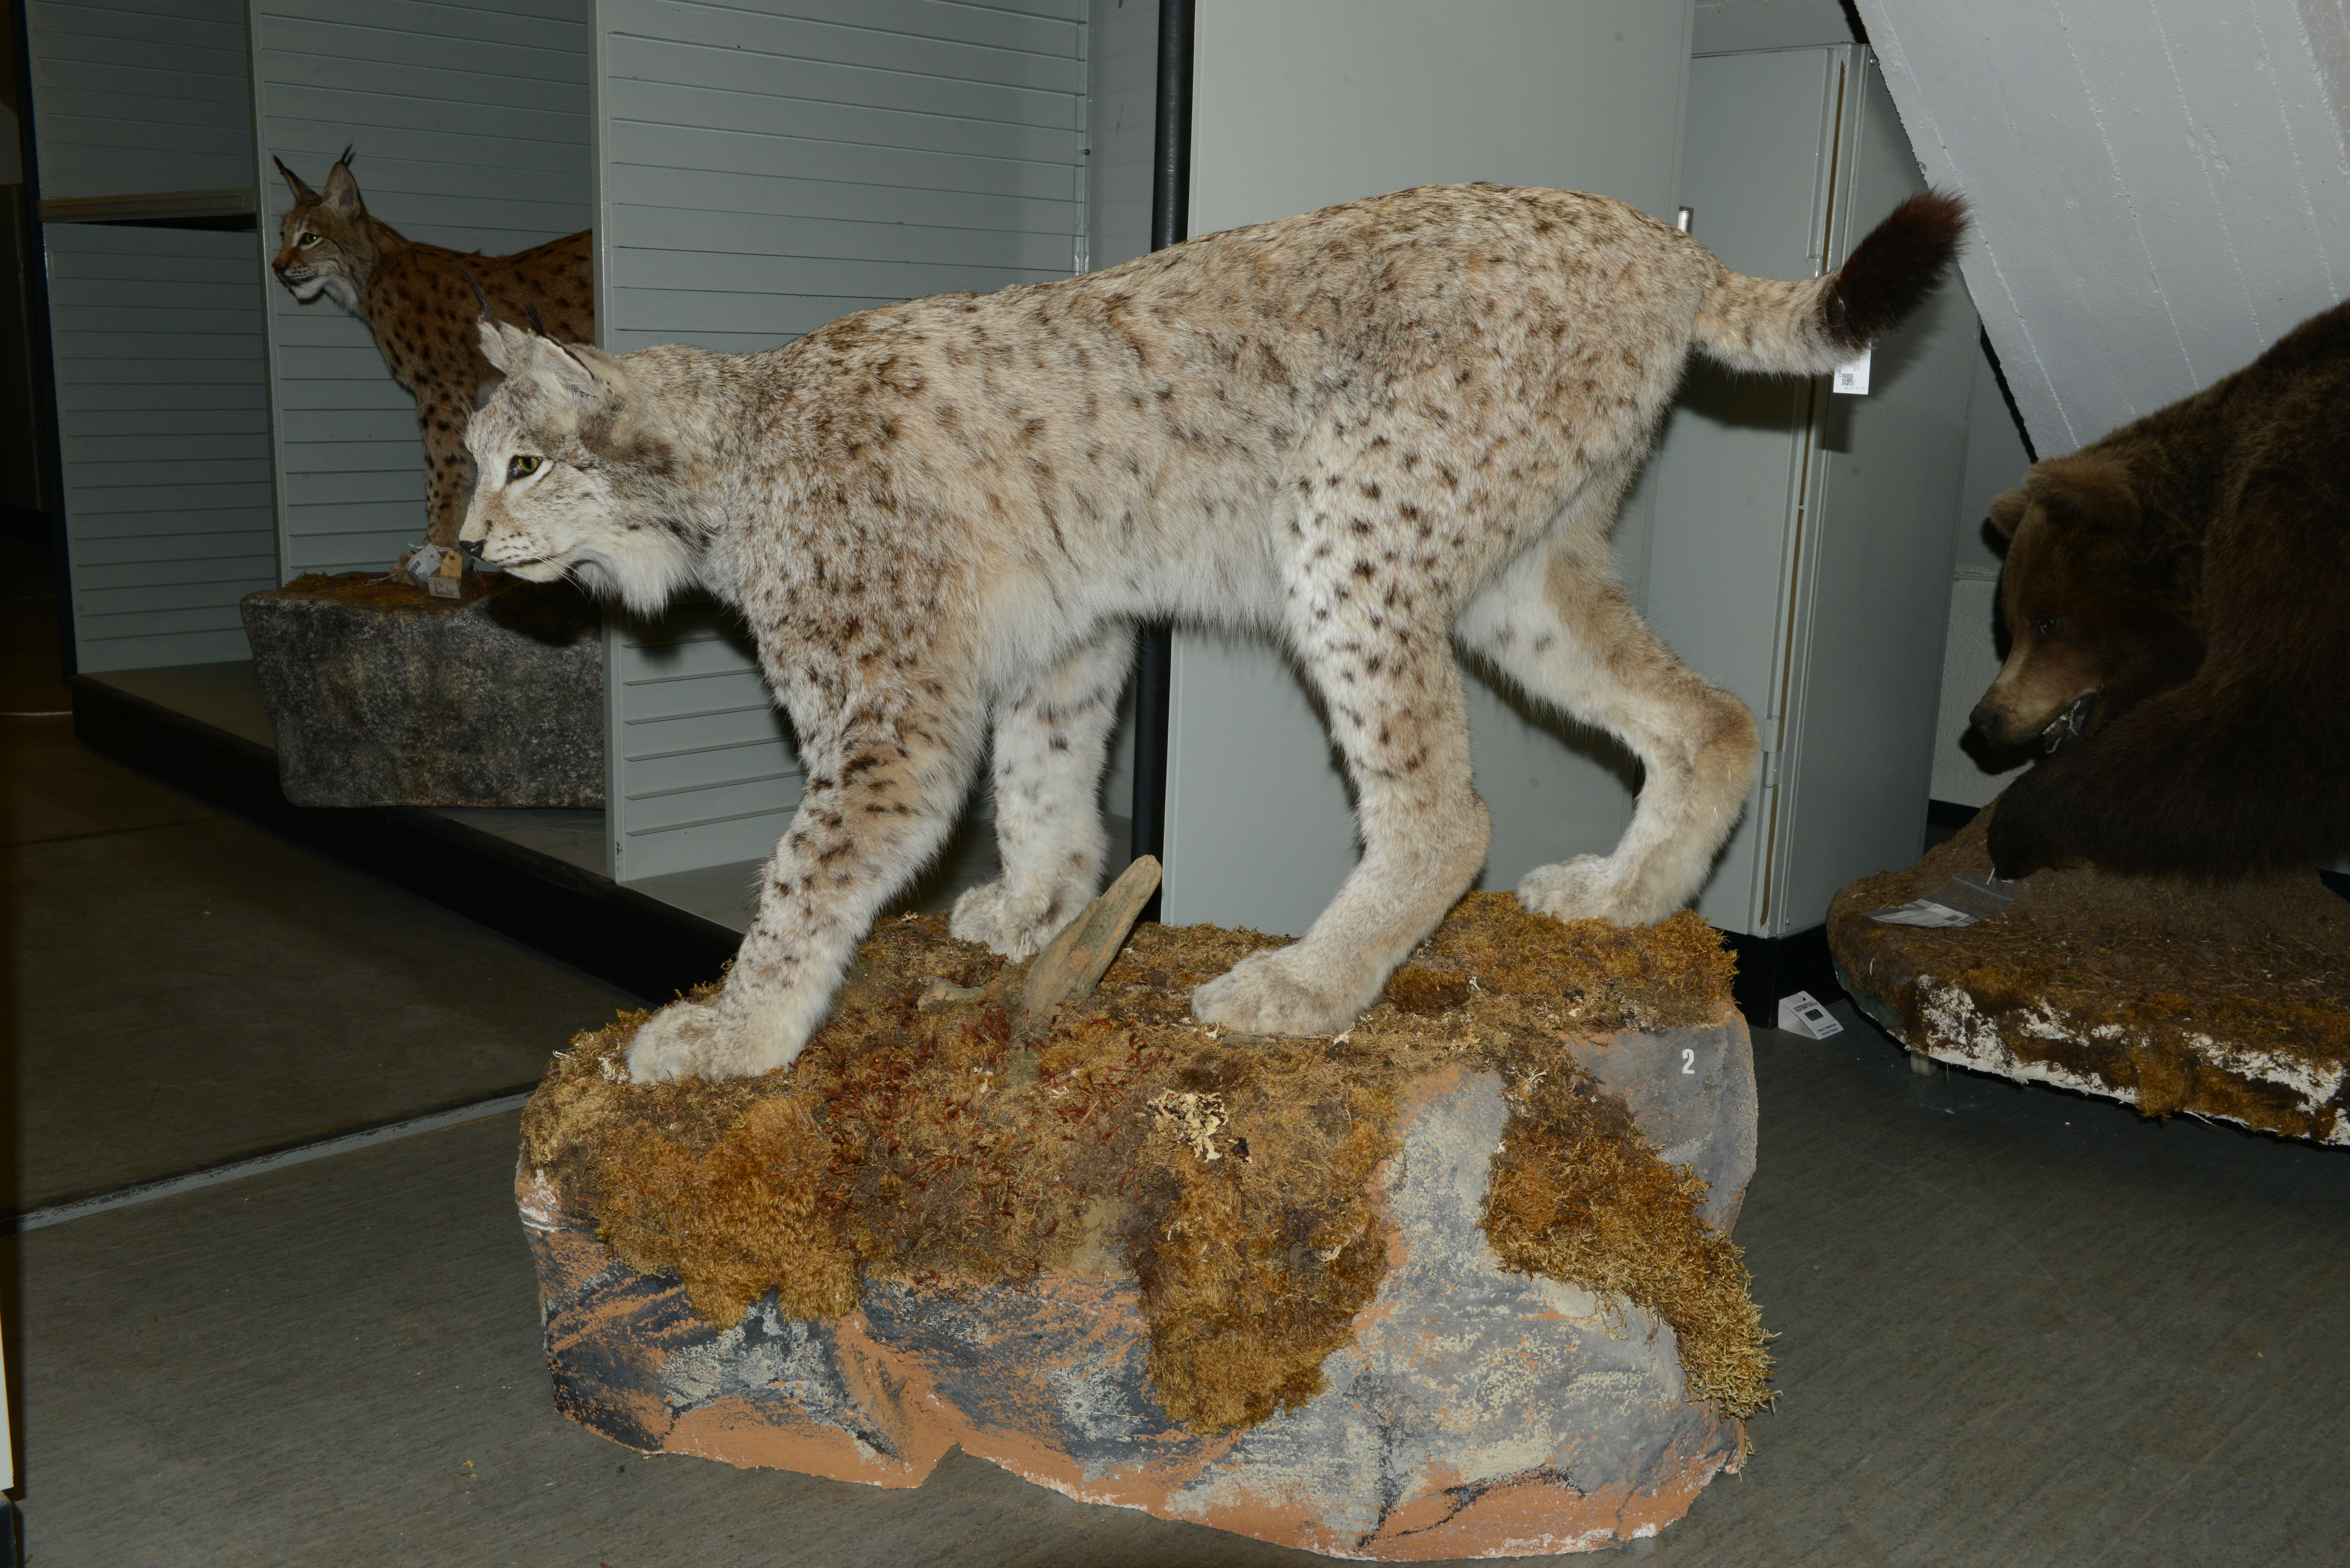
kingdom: Animalia
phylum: Chordata
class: Mammalia
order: Carnivora
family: Felidae
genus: Lynx
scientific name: Lynx lynx
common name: Eurasian lynx
